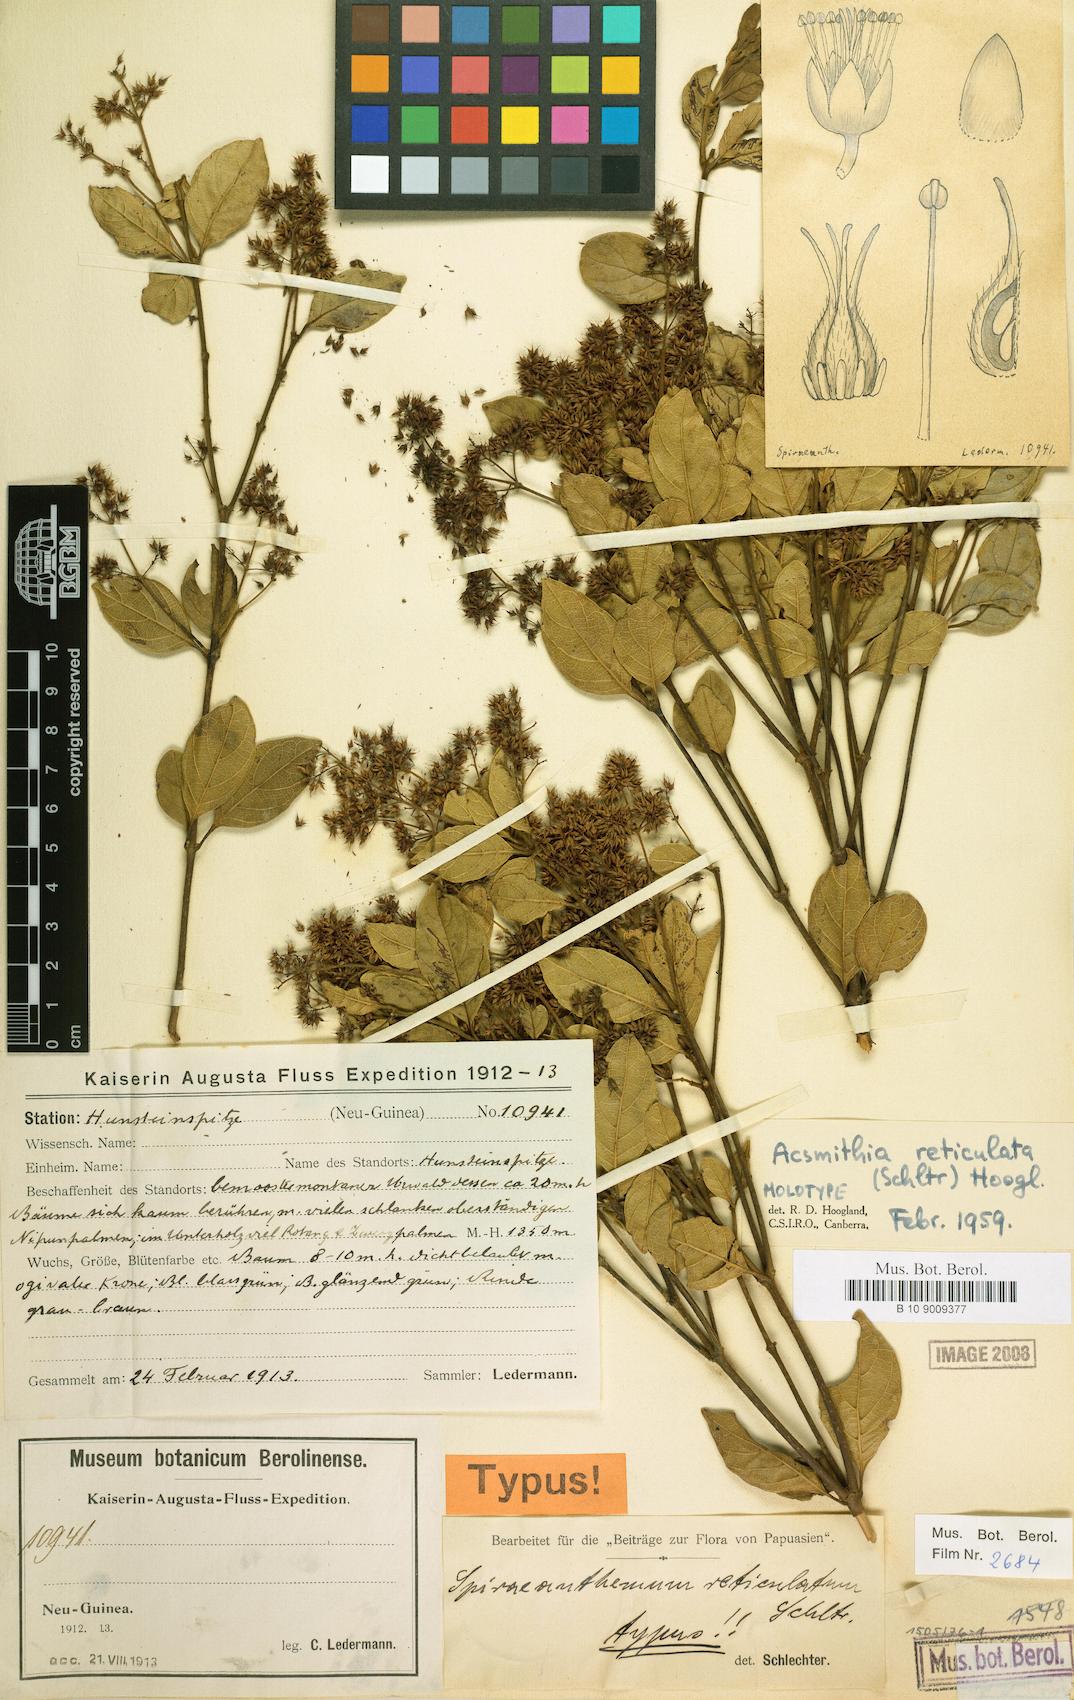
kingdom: Plantae
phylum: Tracheophyta
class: Magnoliopsida
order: Oxalidales
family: Cunoniaceae
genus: Spiraeanthemum
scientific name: Spiraeanthemum reticulatum
